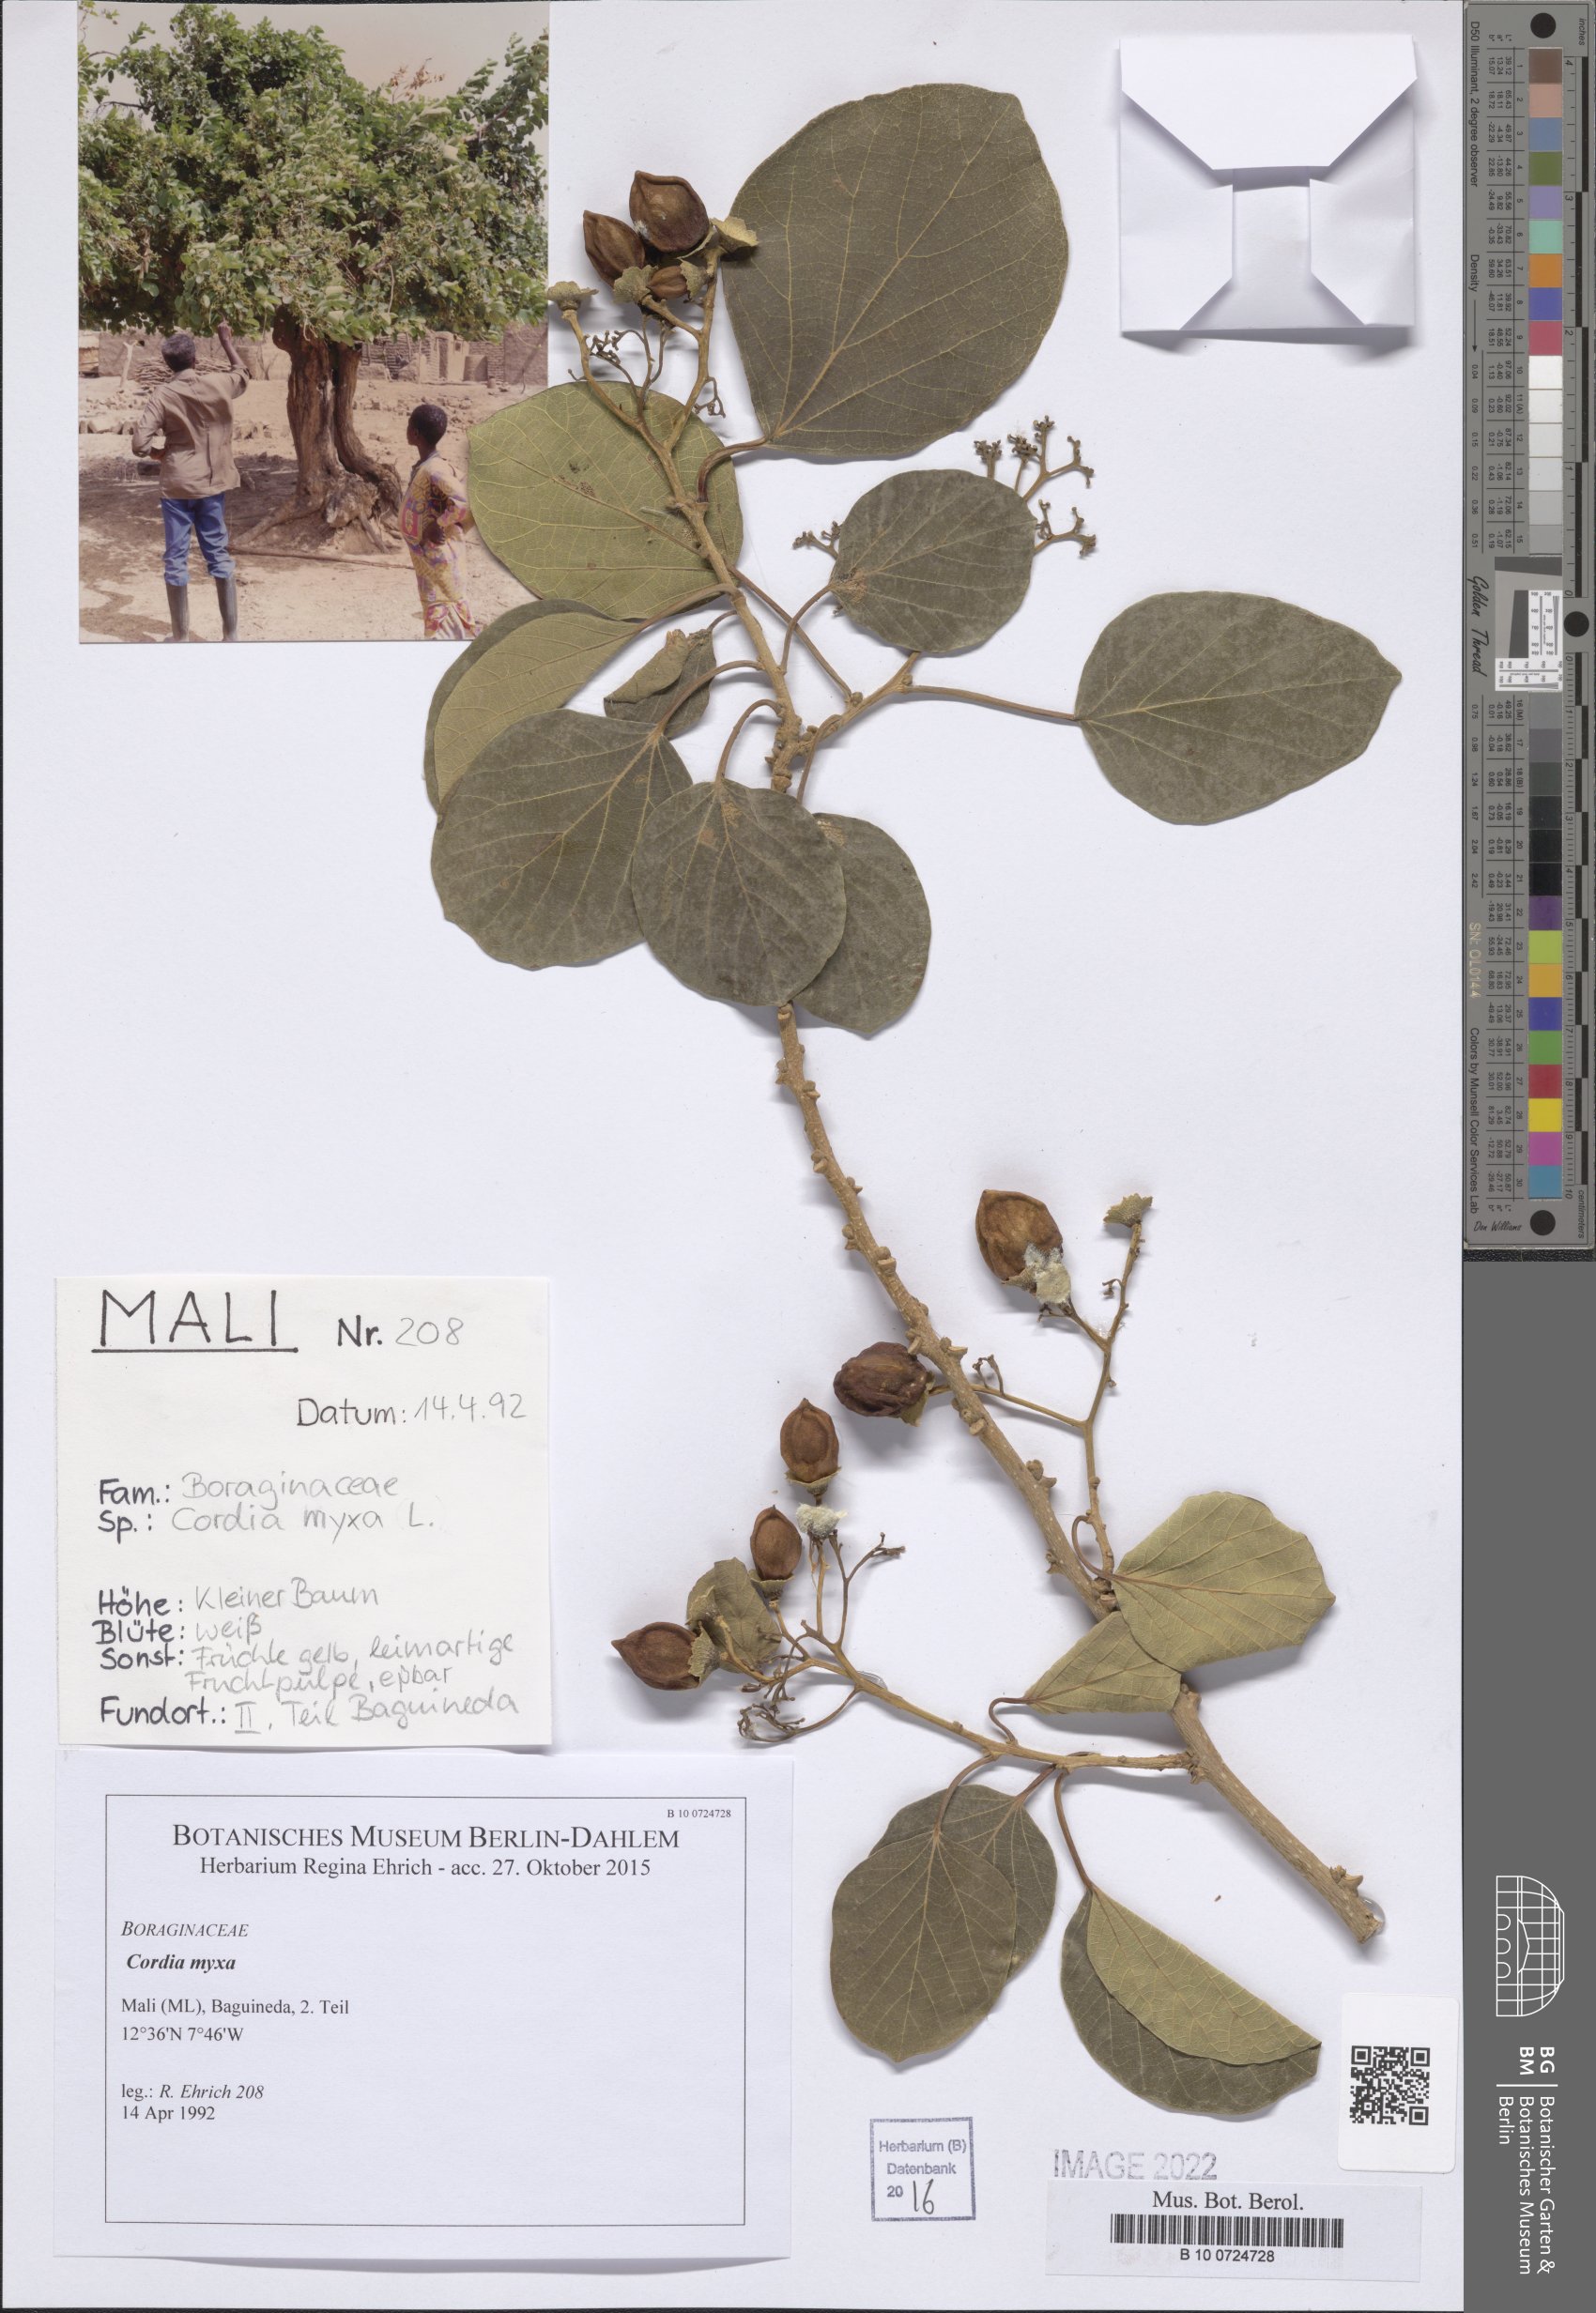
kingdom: Plantae
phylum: Tracheophyta
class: Magnoliopsida
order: Boraginales
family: Cordiaceae
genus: Cordia
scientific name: Cordia myxa
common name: Assyrian plum
